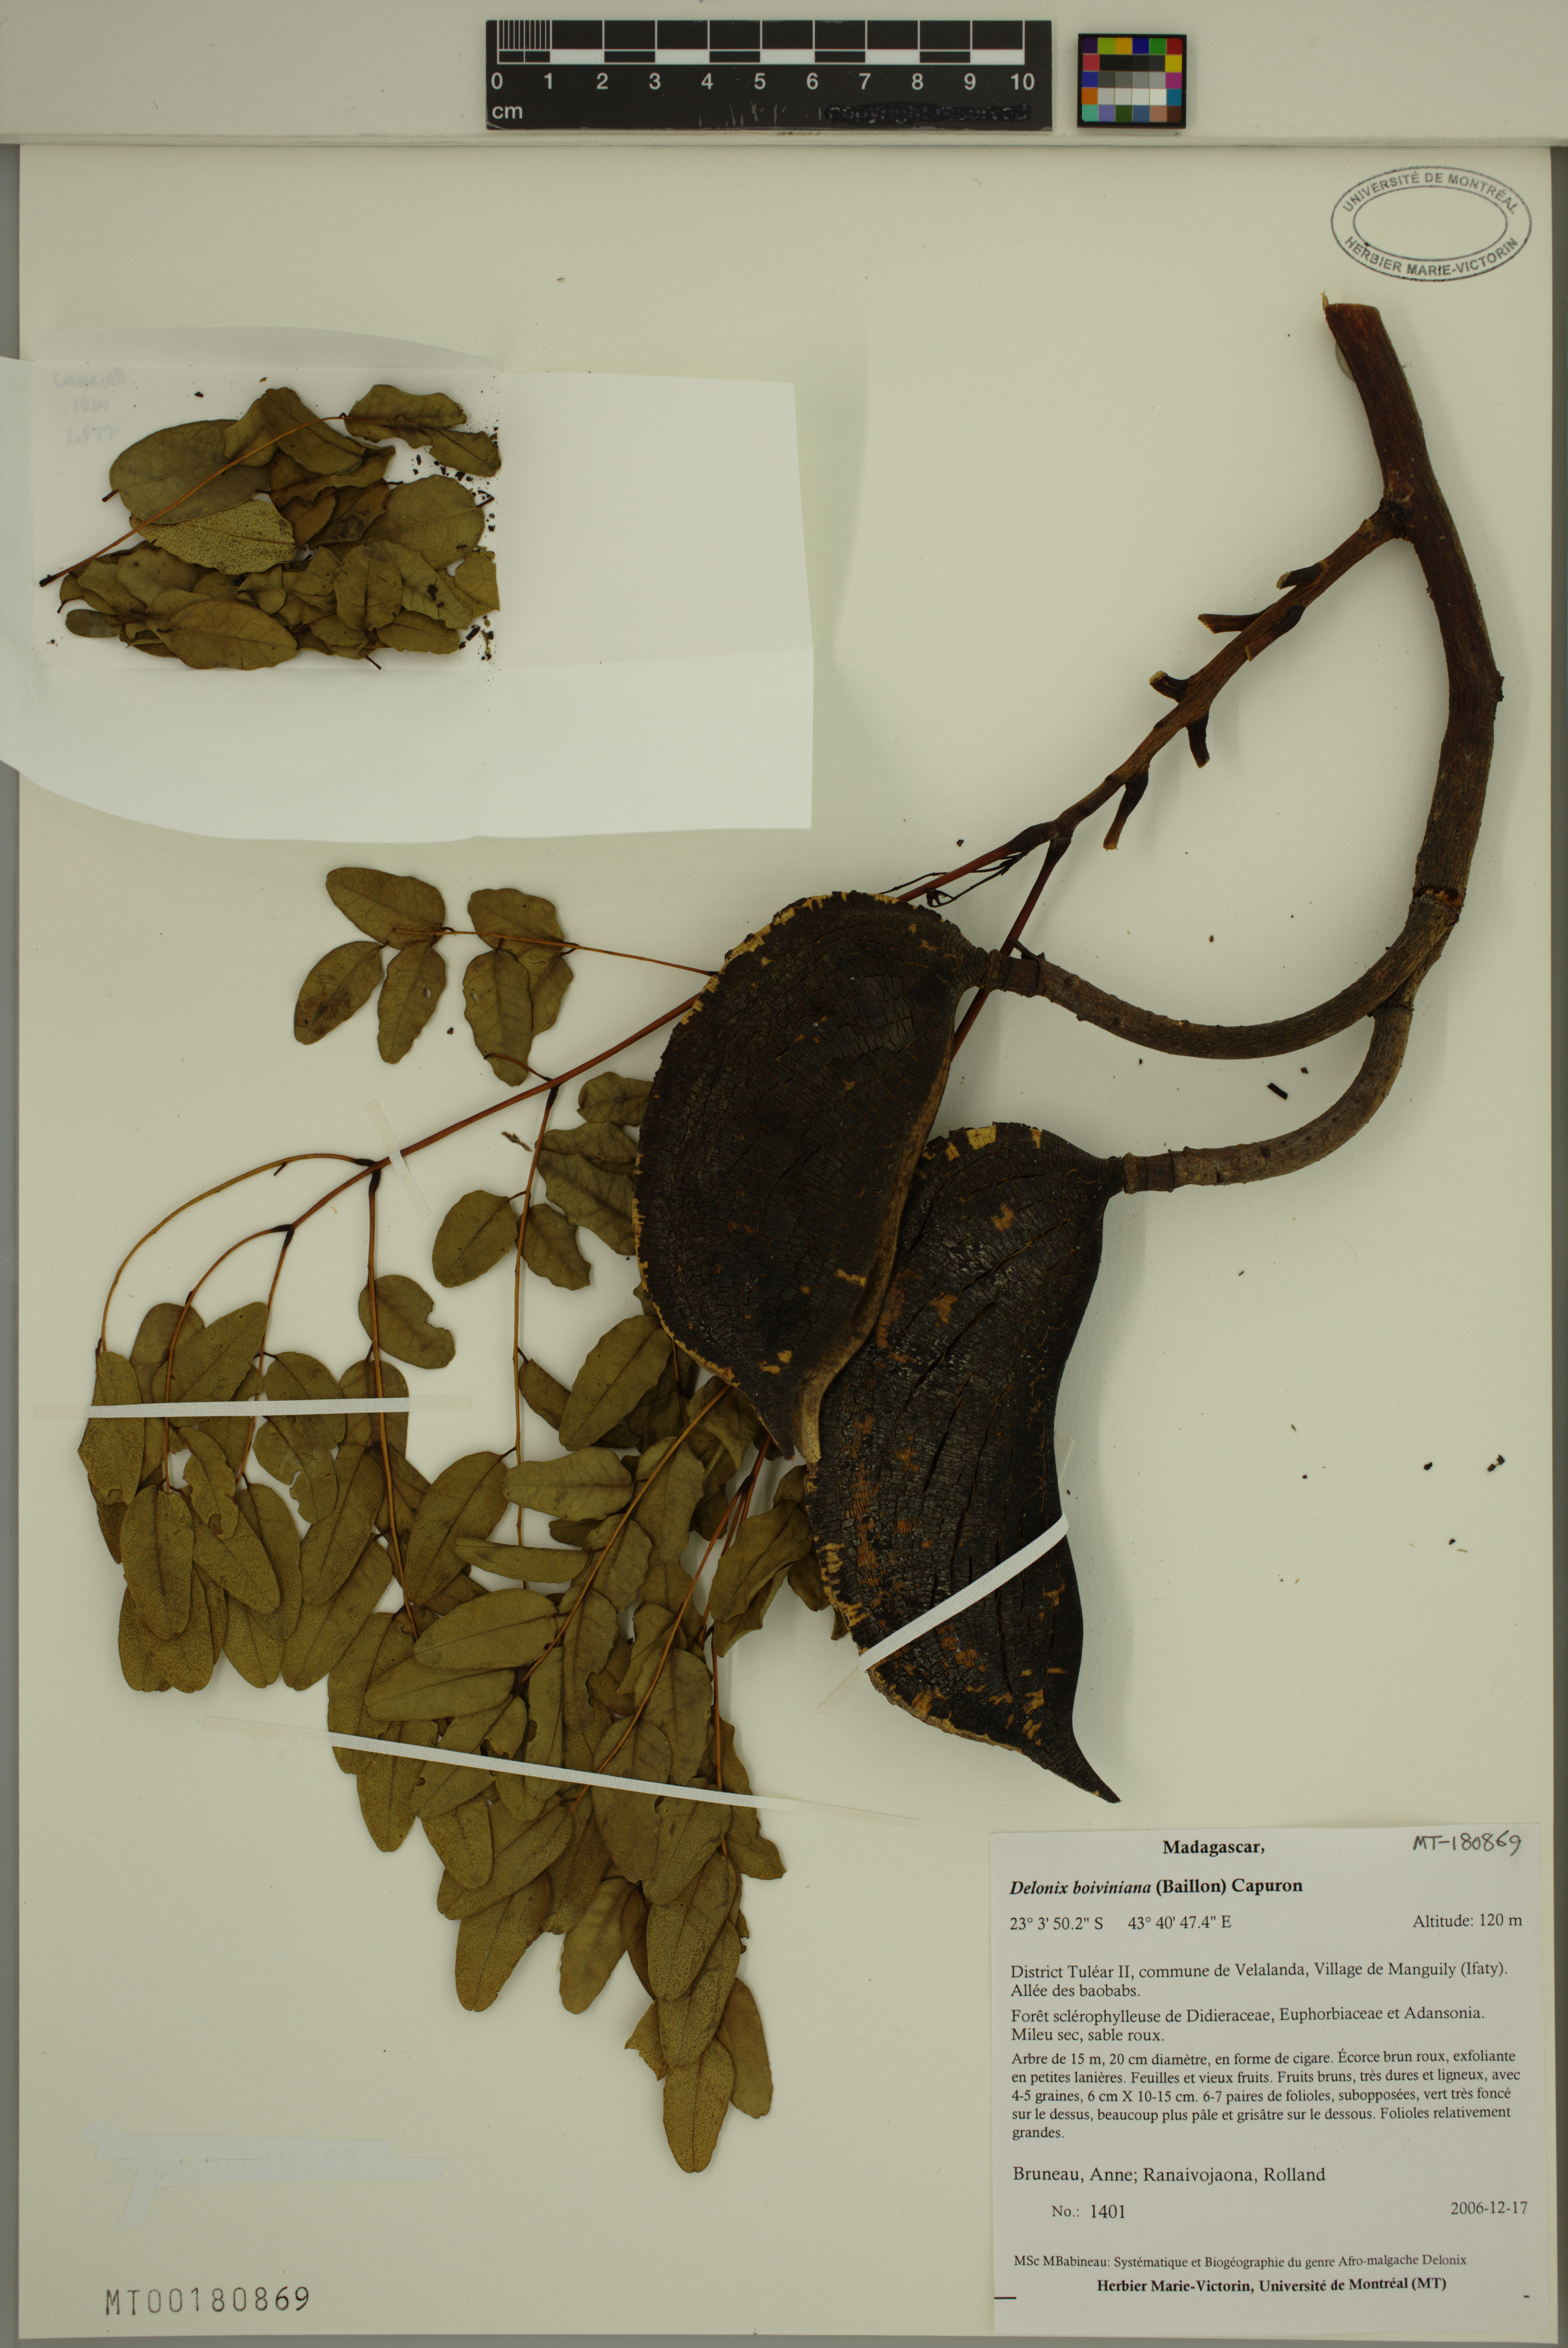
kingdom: Plantae
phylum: Tracheophyta
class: Magnoliopsida
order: Fabales
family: Fabaceae
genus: Delonix
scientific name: Delonix boiviniana
